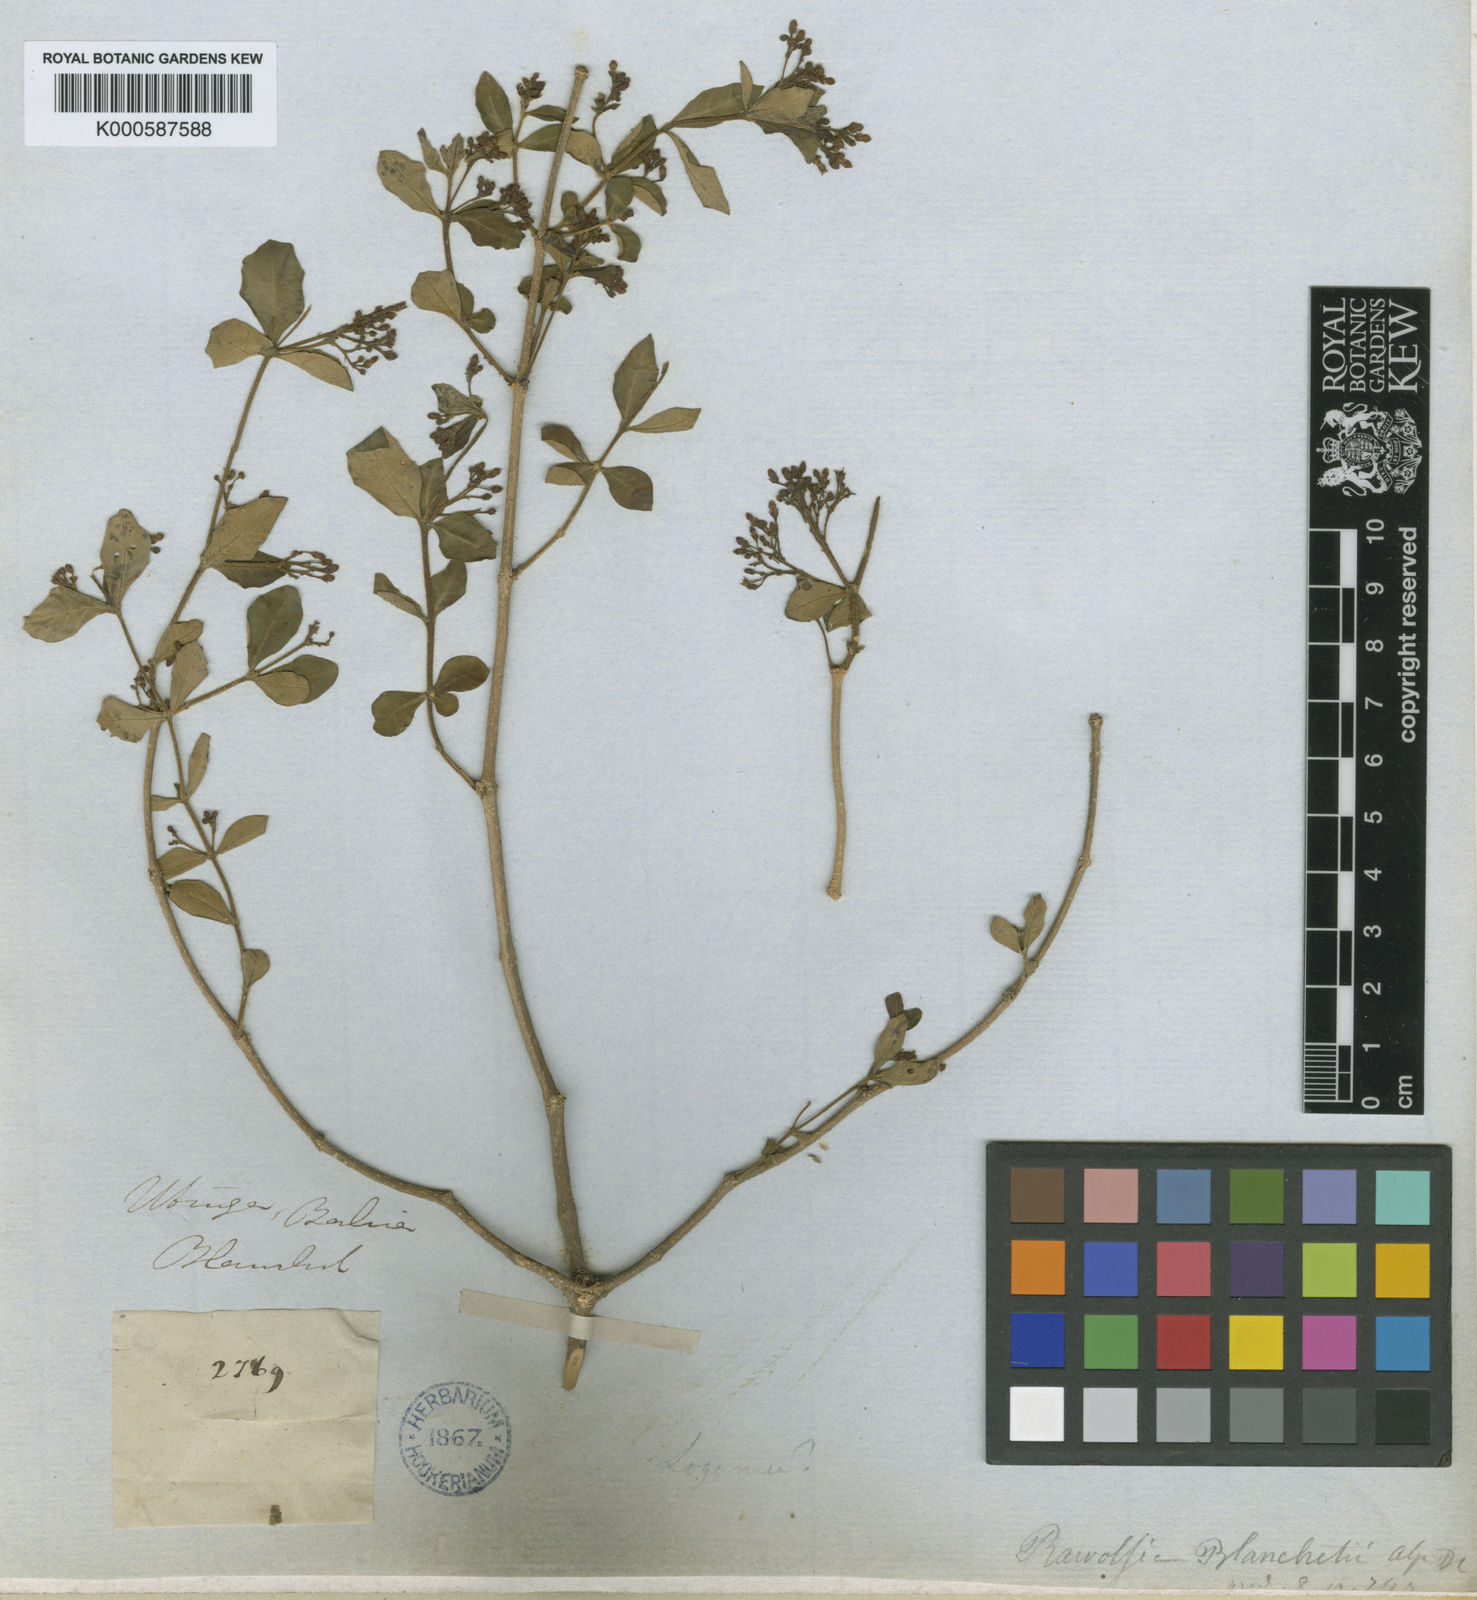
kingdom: Plantae
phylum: Tracheophyta
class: Magnoliopsida
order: Gentianales
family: Apocynaceae
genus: Rauvolfia
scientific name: Rauvolfia ligustrina
